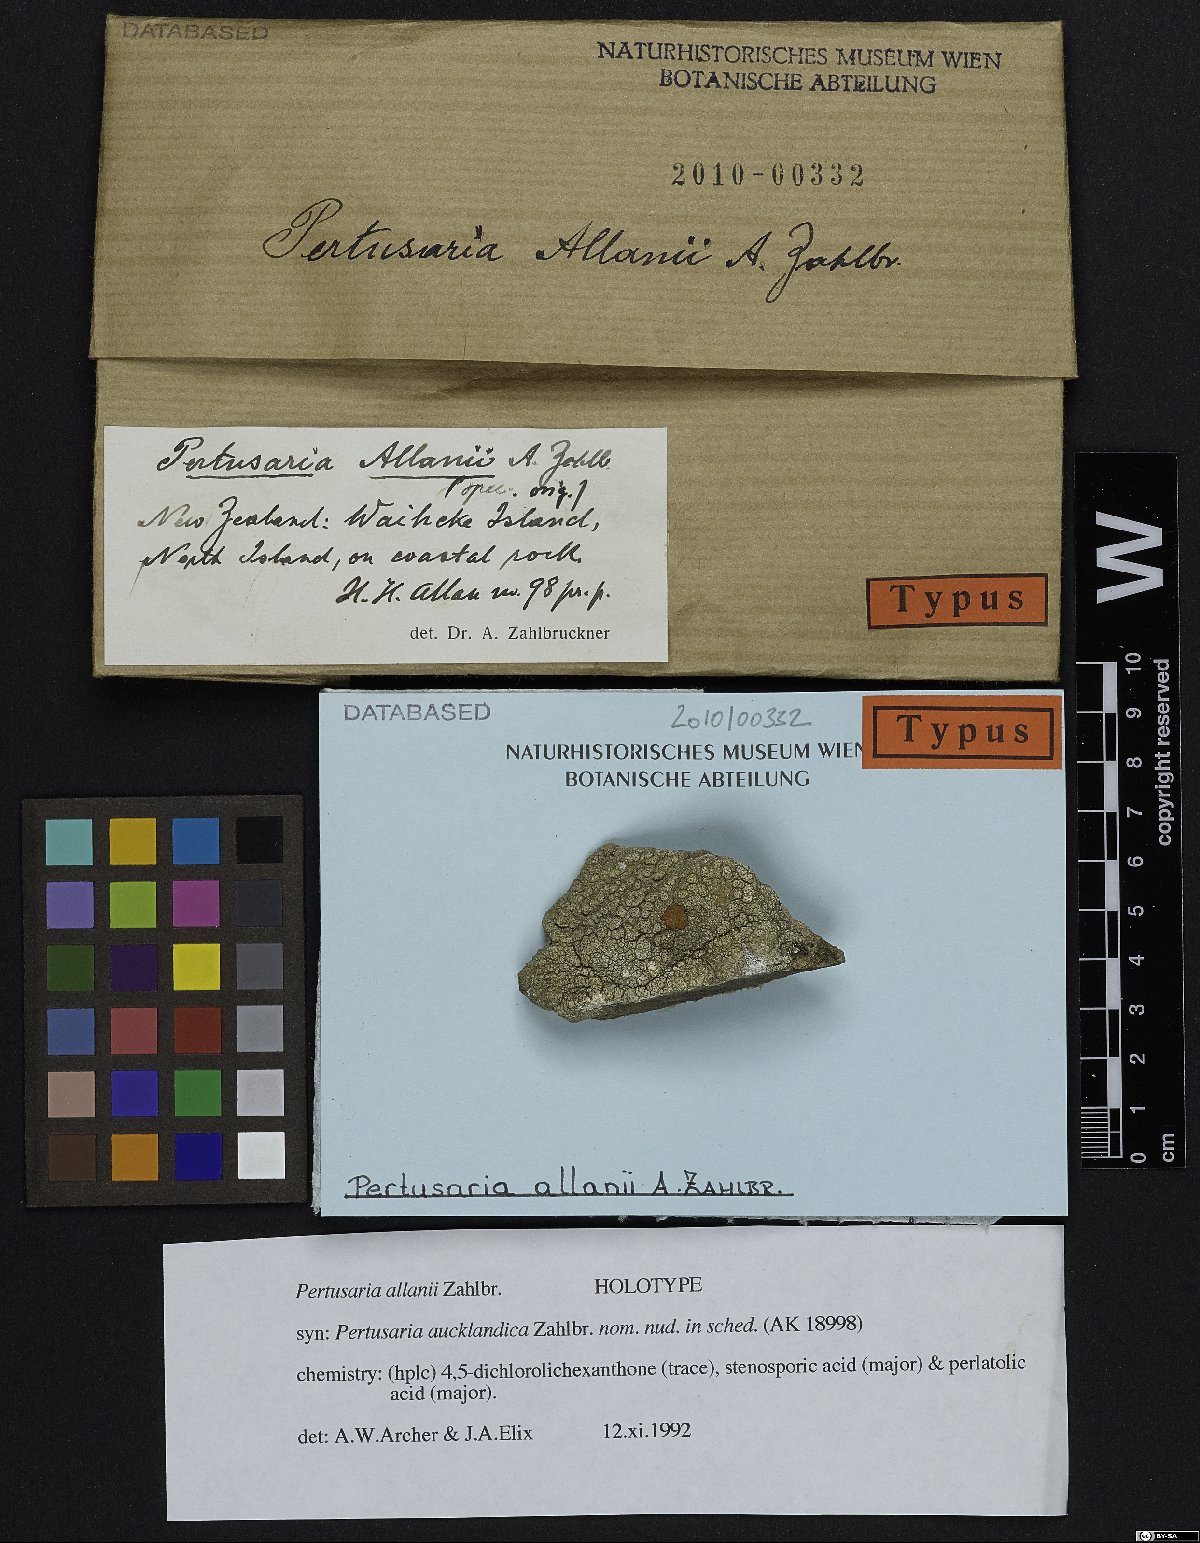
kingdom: Fungi
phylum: Ascomycota
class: Lecanoromycetes
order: Pertusariales
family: Pertusariaceae
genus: Pertusaria
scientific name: Pertusaria
